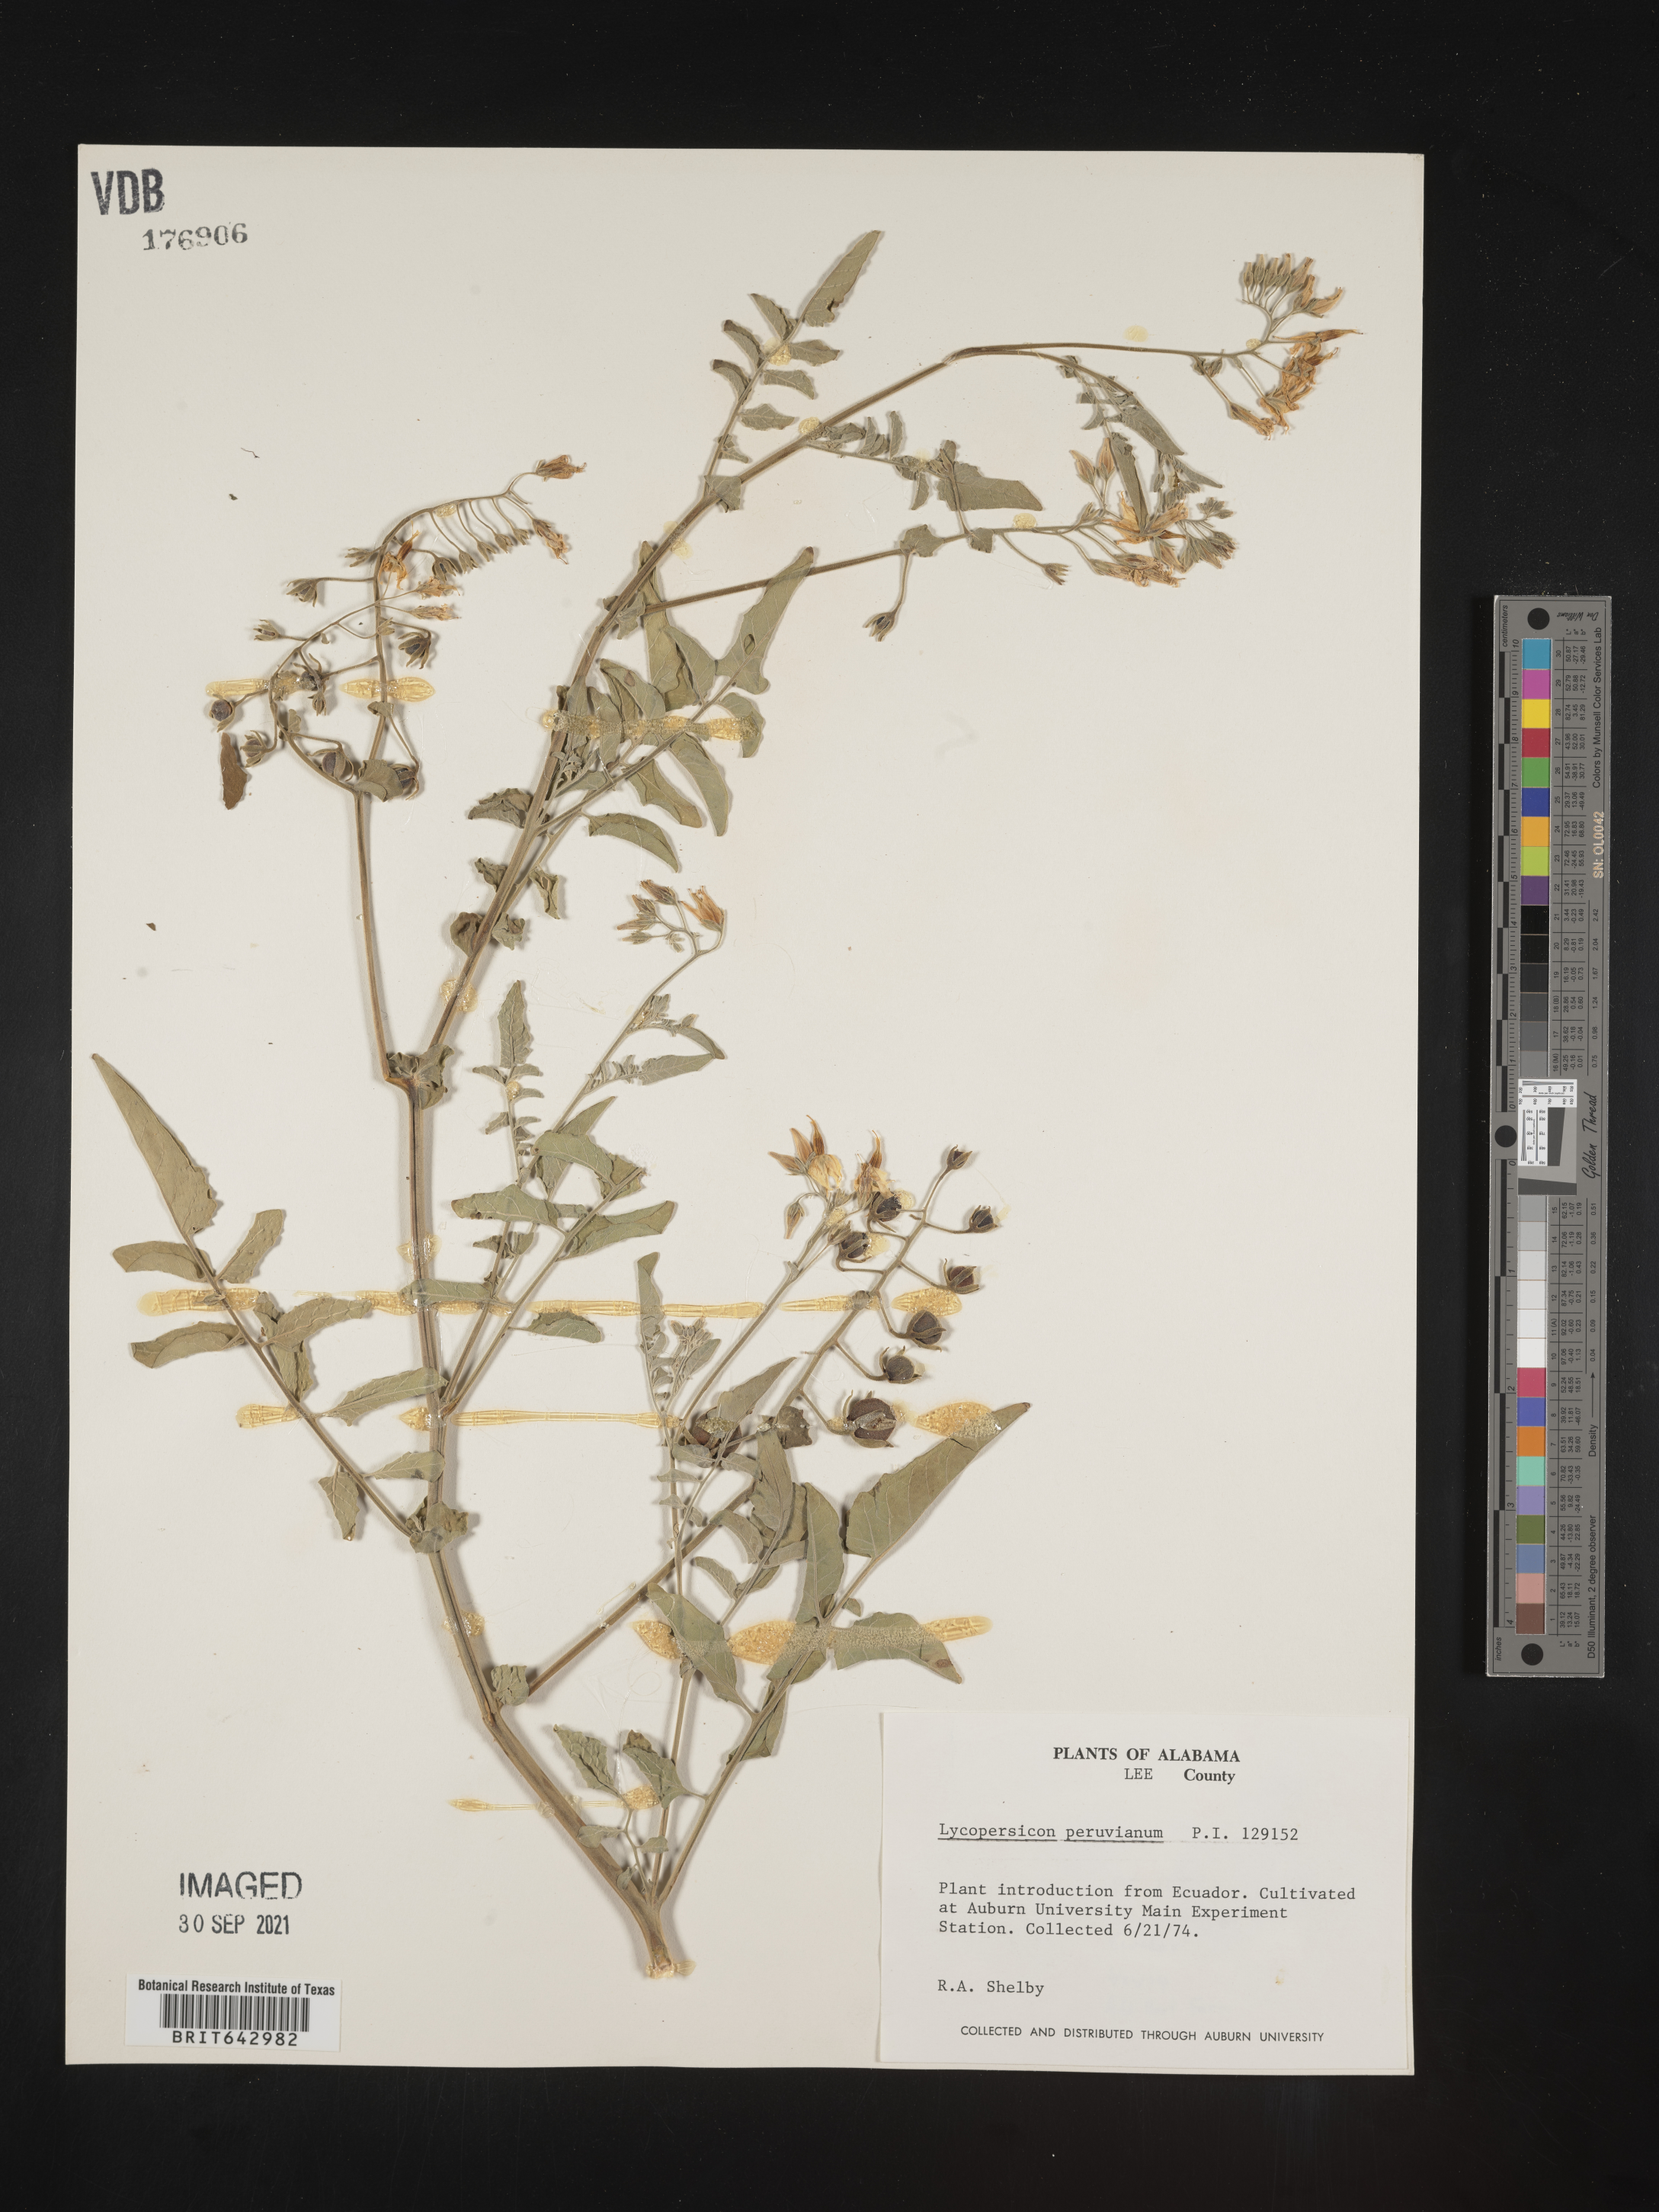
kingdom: Plantae
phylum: Tracheophyta
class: Magnoliopsida
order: Solanales
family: Solanaceae
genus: Lycopersicon
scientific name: Lycopersicon
